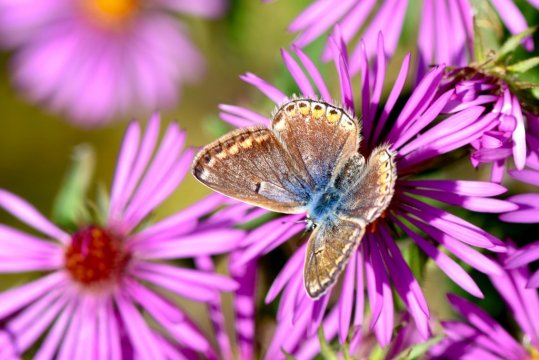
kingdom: Animalia
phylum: Arthropoda
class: Insecta
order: Lepidoptera
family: Lycaenidae
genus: Polyommatus
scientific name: Polyommatus icarus
